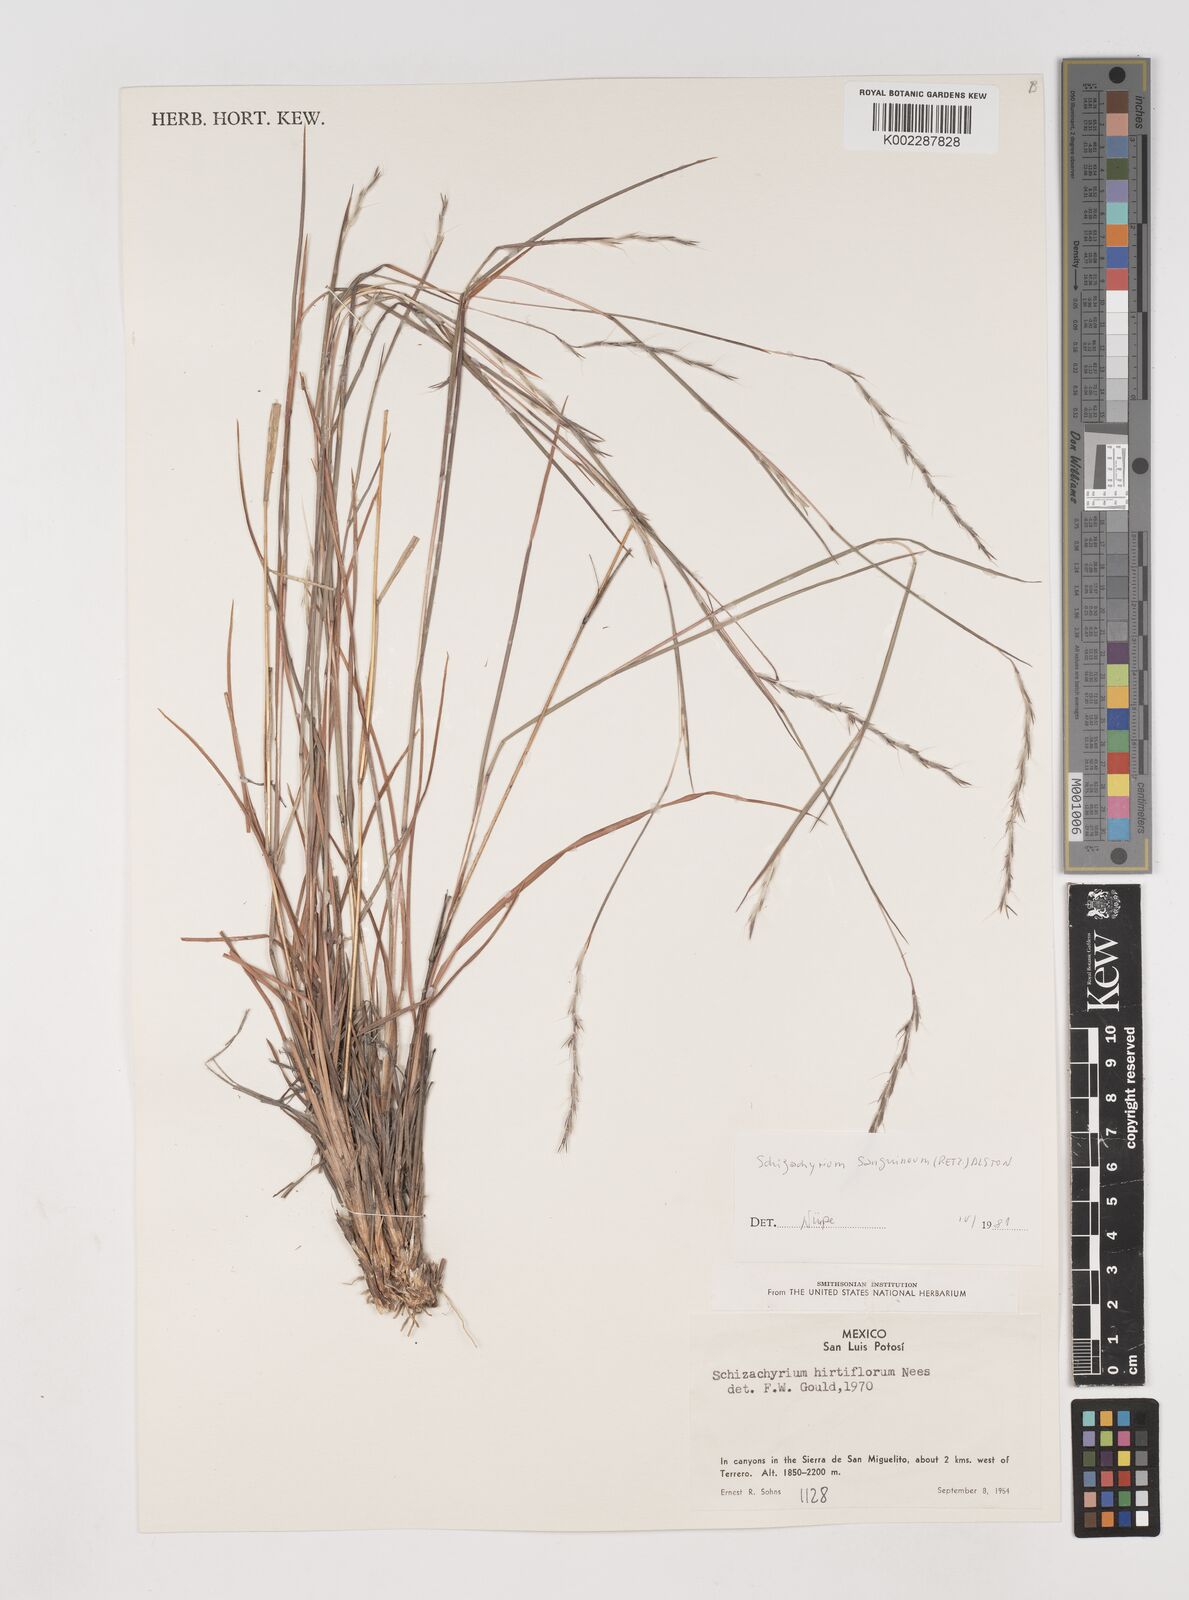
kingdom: Plantae
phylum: Tracheophyta
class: Liliopsida
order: Poales
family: Poaceae
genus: Schizachyrium
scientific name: Schizachyrium sanguineum
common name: Crimson bluestem
